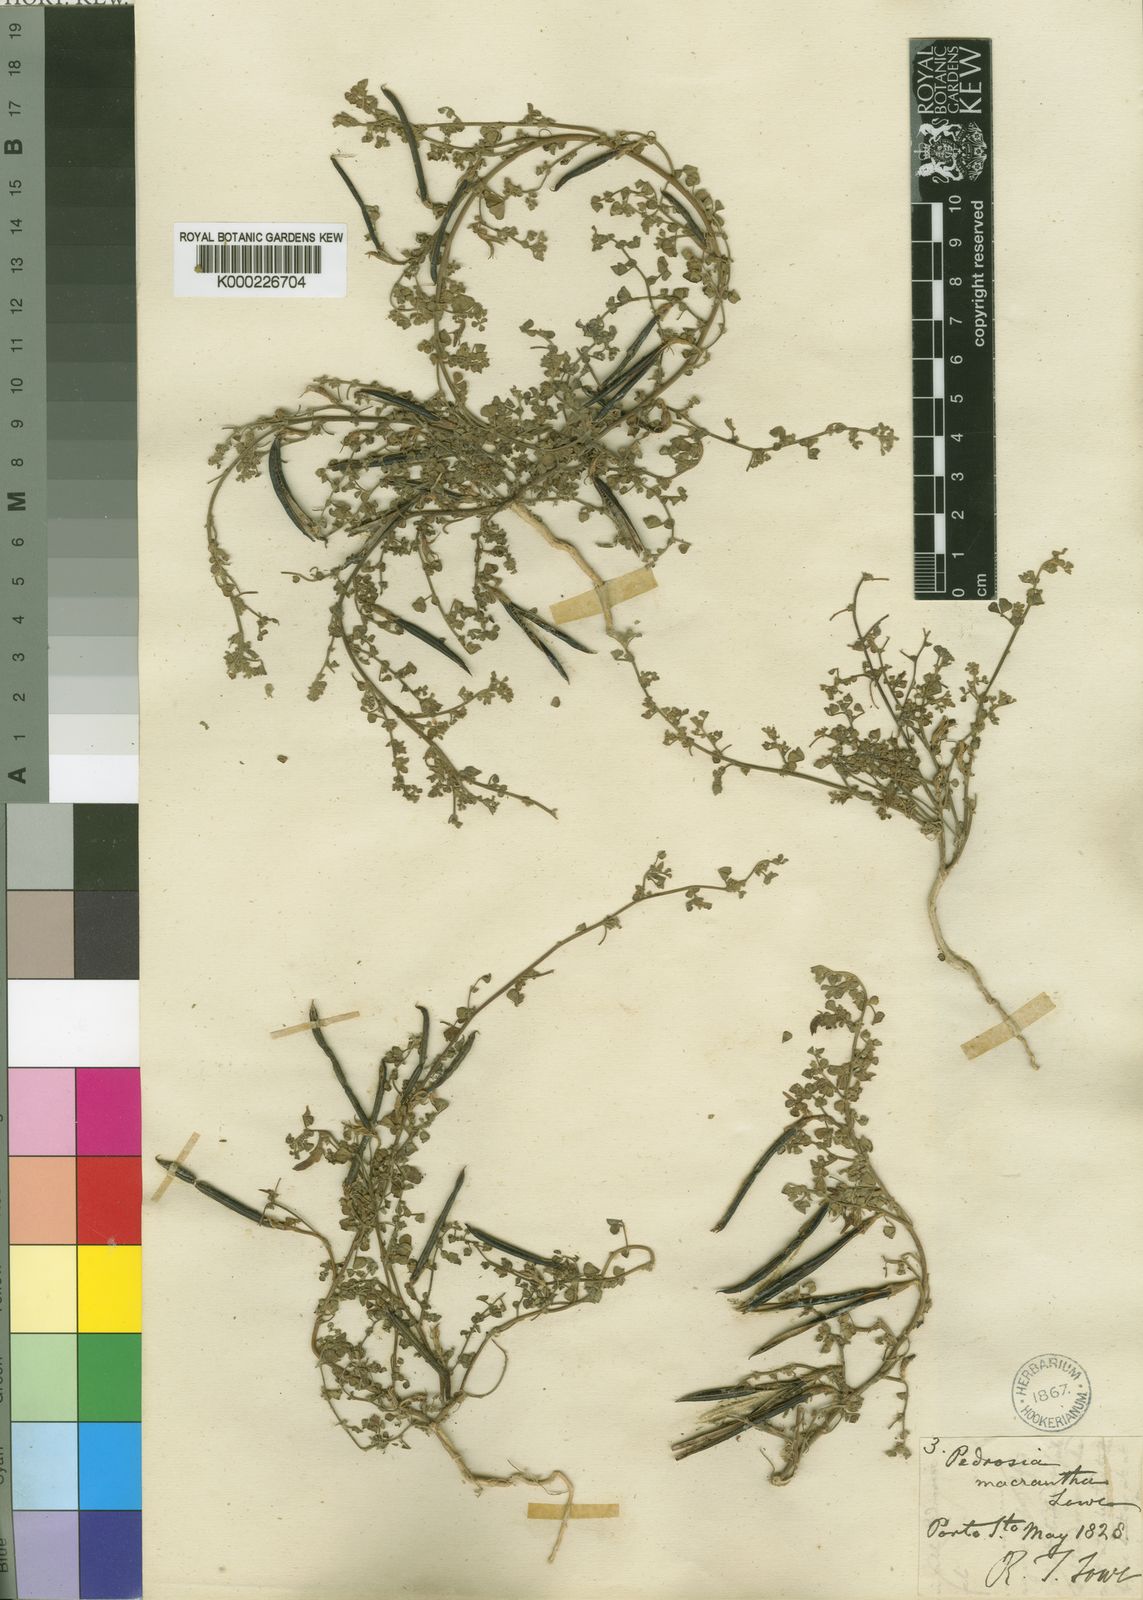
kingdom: Plantae
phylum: Tracheophyta
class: Magnoliopsida
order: Fabales
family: Fabaceae
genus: Lotus
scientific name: Lotus macranthus
